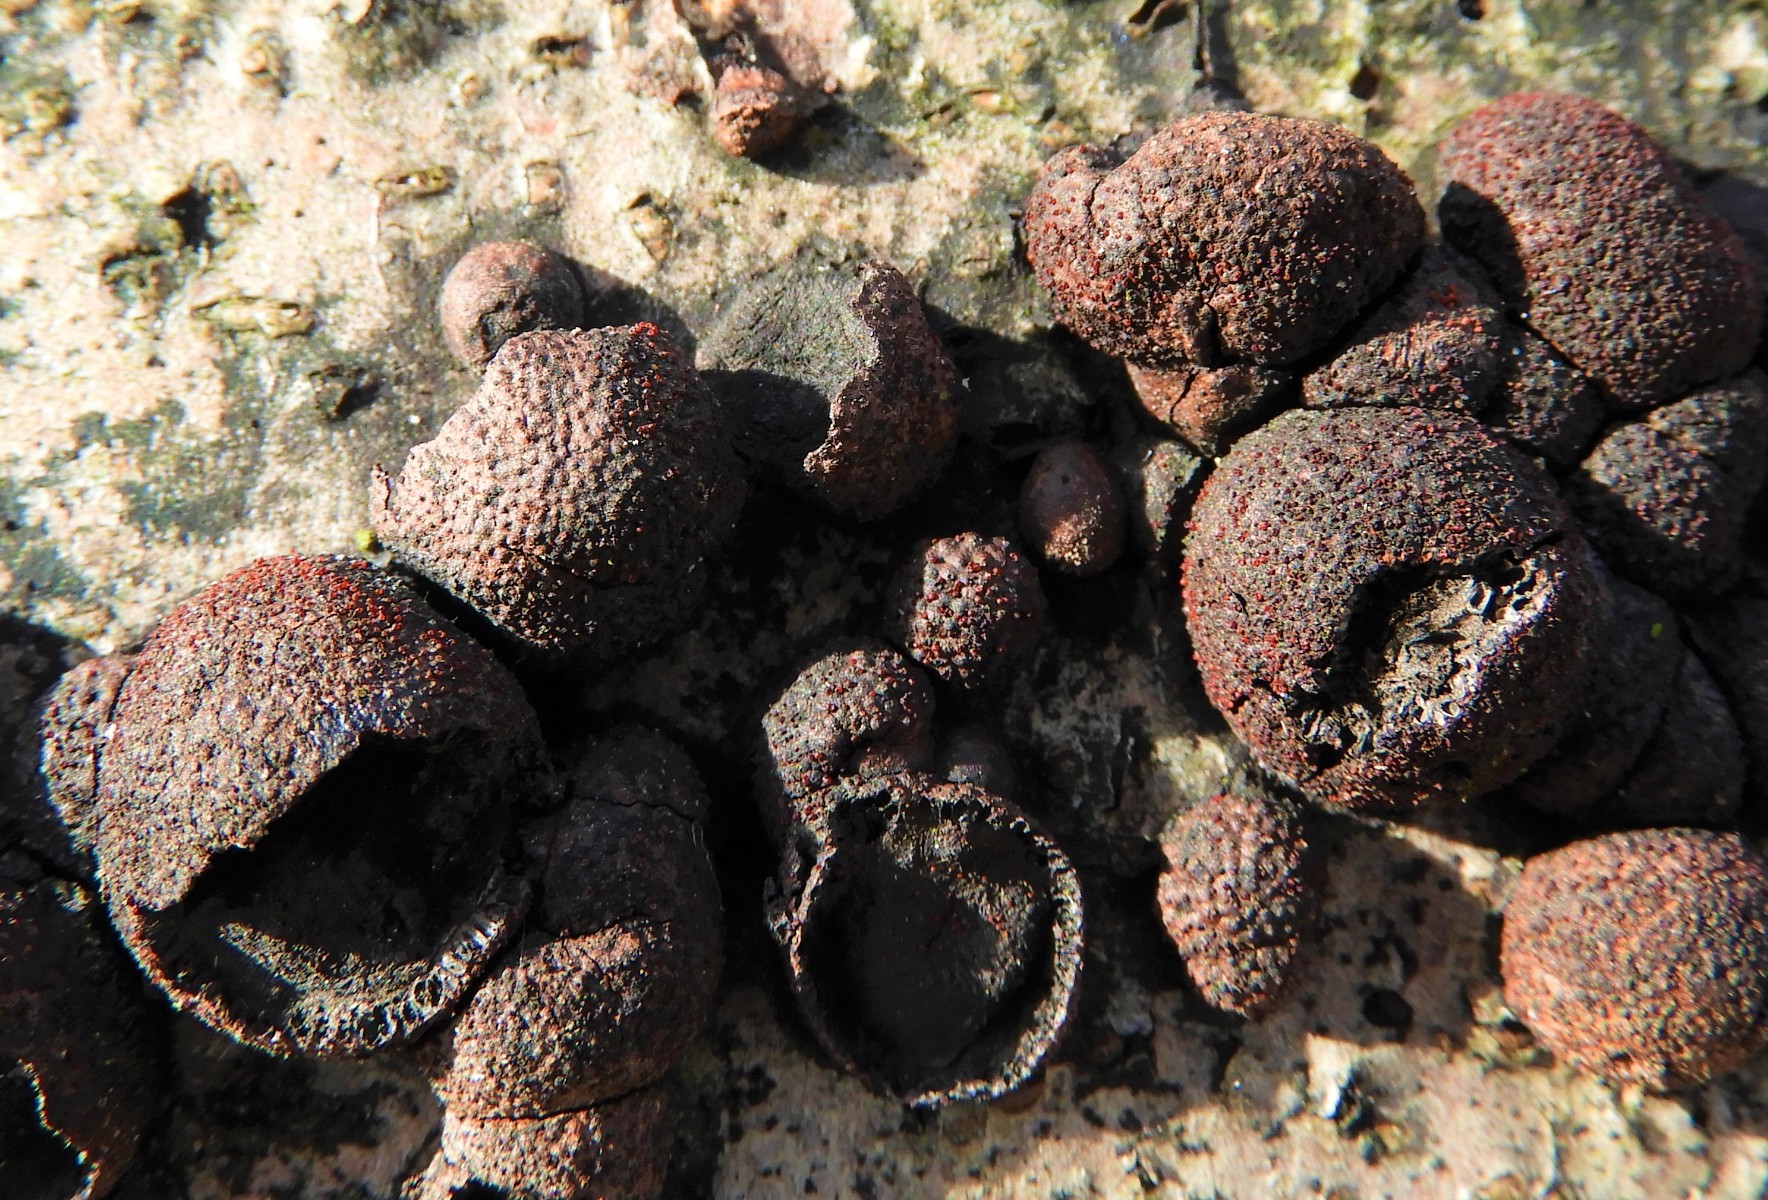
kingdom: Fungi
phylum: Ascomycota
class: Sordariomycetes
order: Hypocreales
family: Nectriaceae
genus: Cosmospora
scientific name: Cosmospora arxii
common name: kuljordbær-cinnobersvamp
